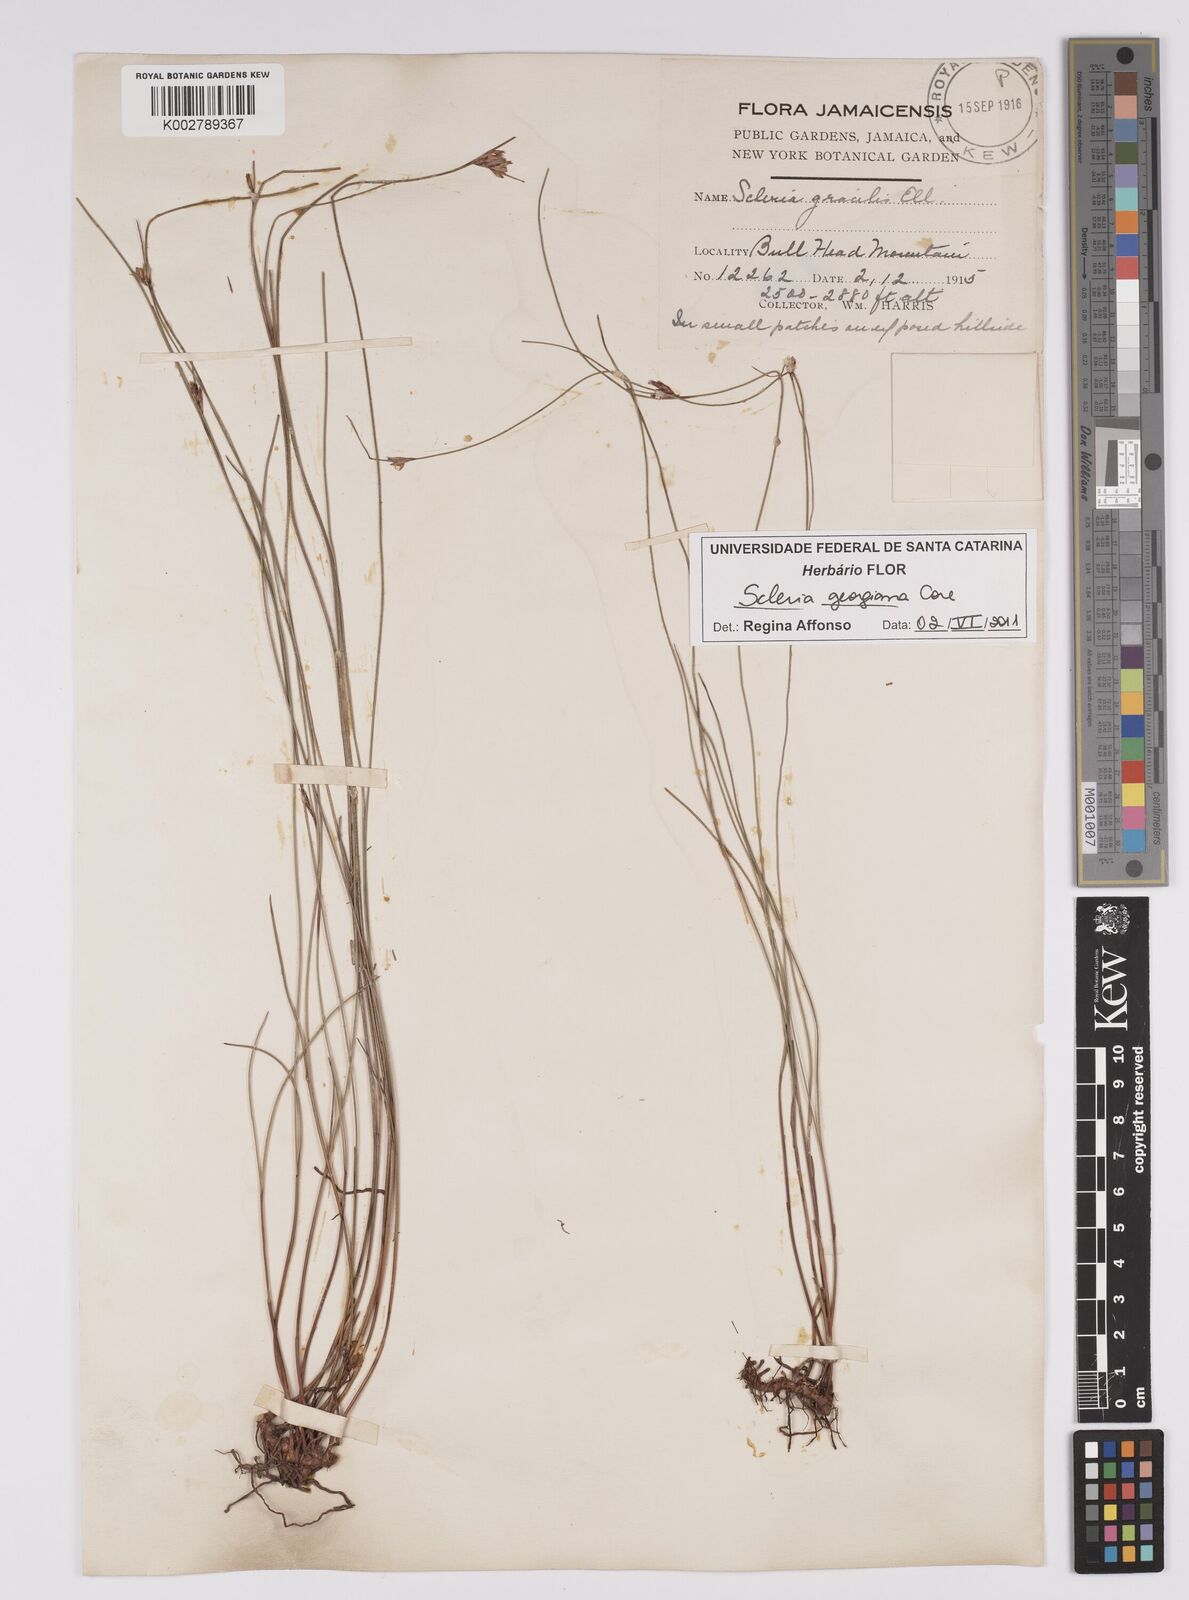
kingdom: Plantae
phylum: Tracheophyta
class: Liliopsida
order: Poales
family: Cyperaceae
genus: Scleria
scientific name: Scleria georgiana
